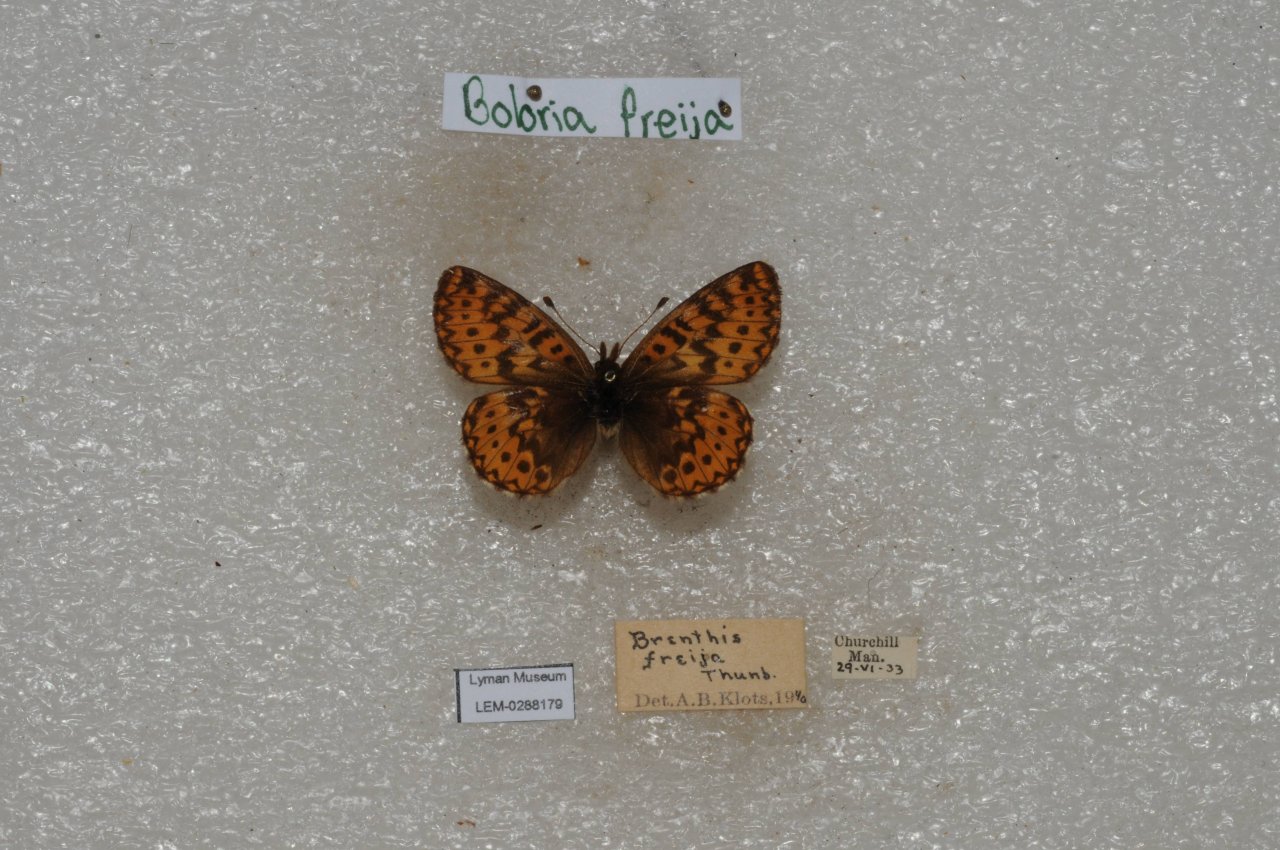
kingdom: Animalia
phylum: Arthropoda
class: Insecta
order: Lepidoptera
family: Nymphalidae
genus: Boloria
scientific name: Boloria freija
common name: Freija Fritillary
